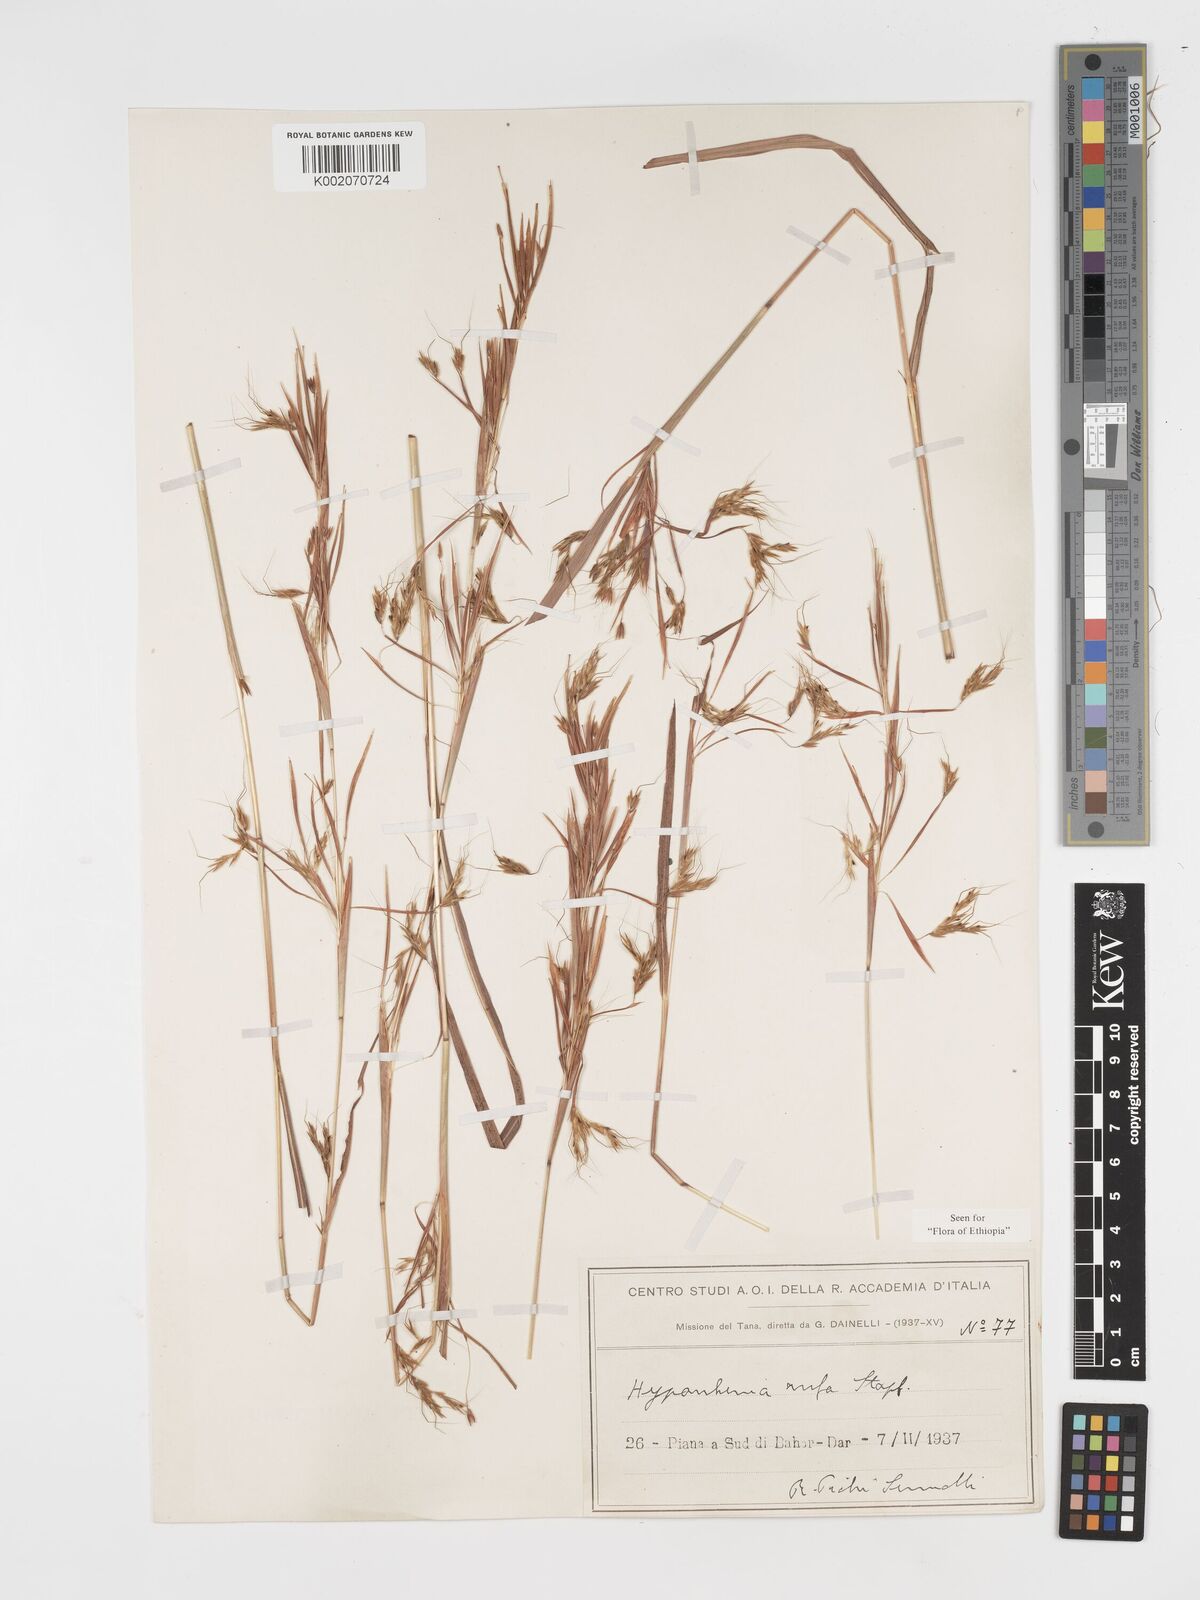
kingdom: Plantae
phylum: Tracheophyta
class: Liliopsida
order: Poales
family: Poaceae
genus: Hyparrhenia
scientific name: Hyparrhenia rufa
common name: Jaraguagrass
